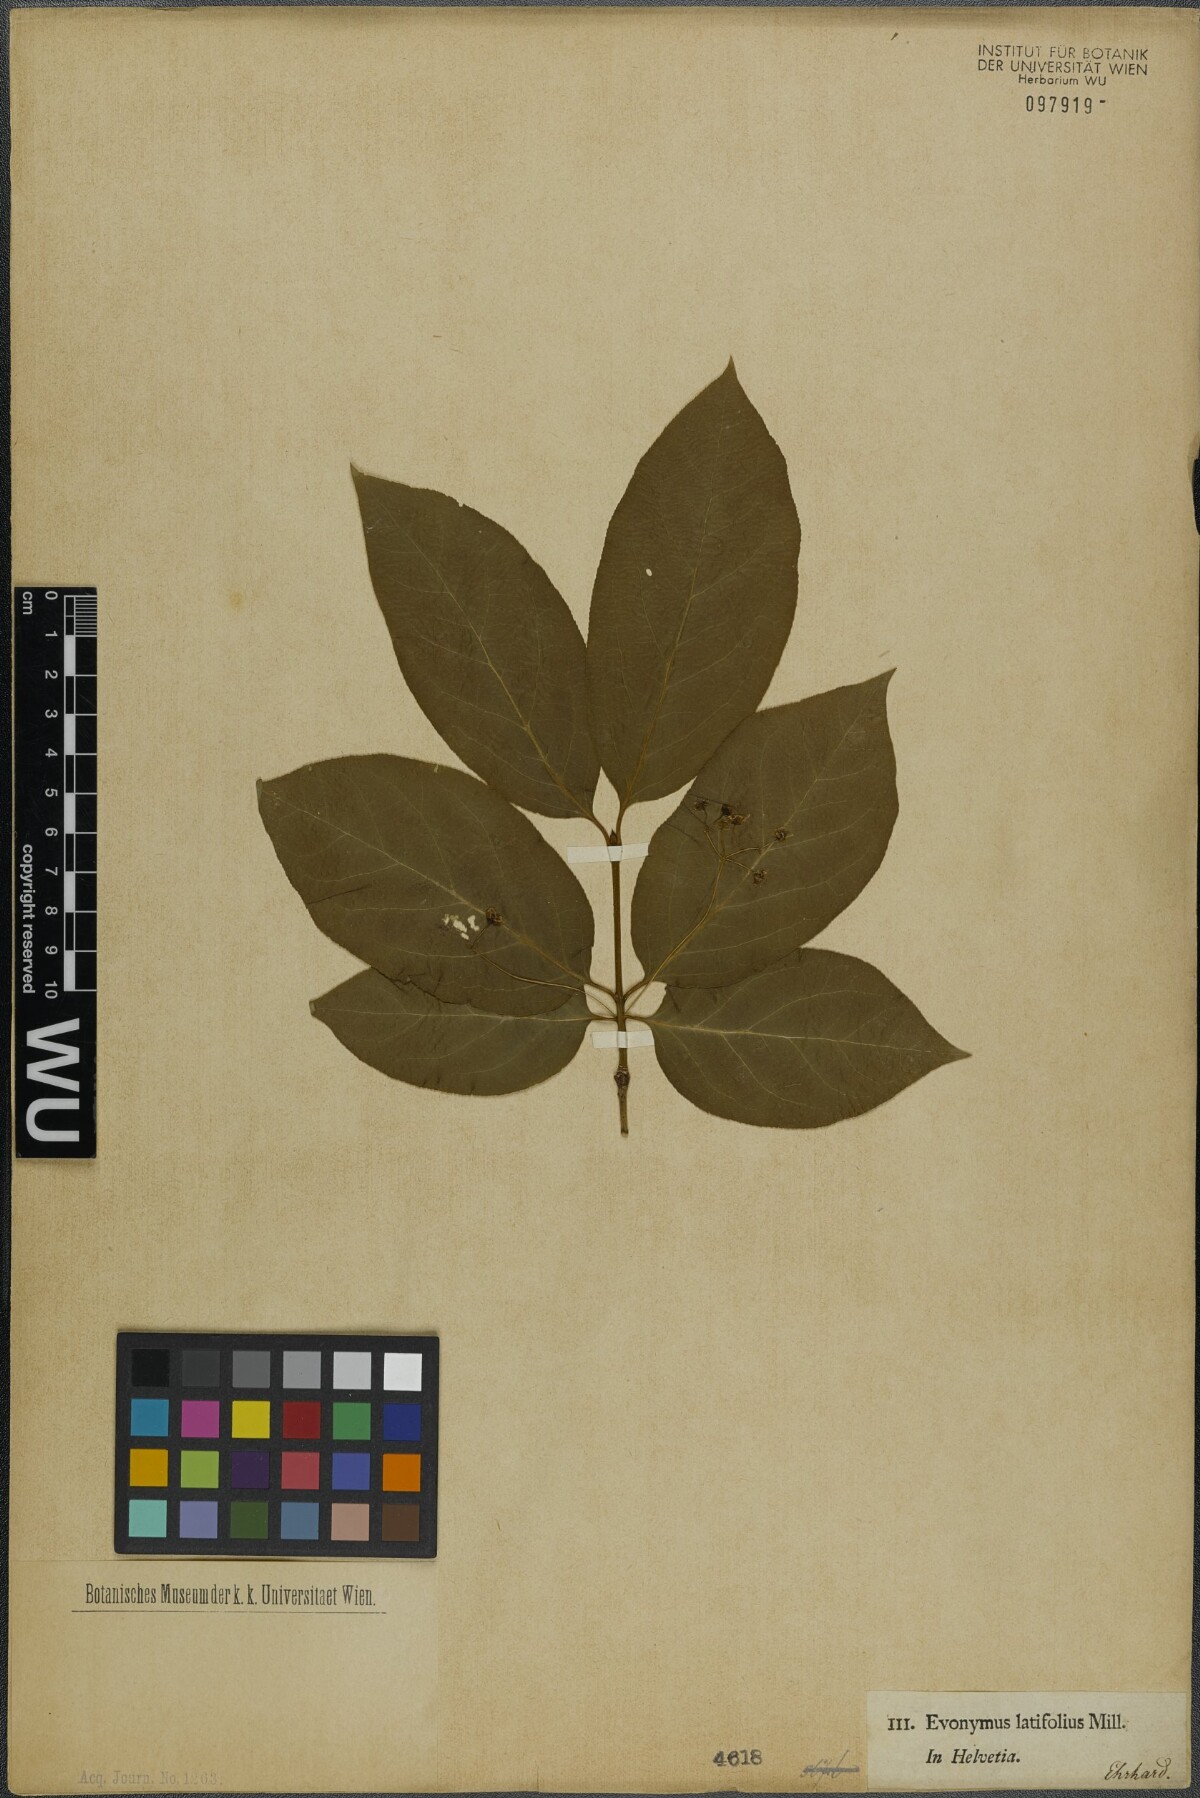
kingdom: Plantae
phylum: Tracheophyta
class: Magnoliopsida
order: Celastrales
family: Celastraceae
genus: Euonymus
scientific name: Euonymus latifolius
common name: Large-leaved spindle
